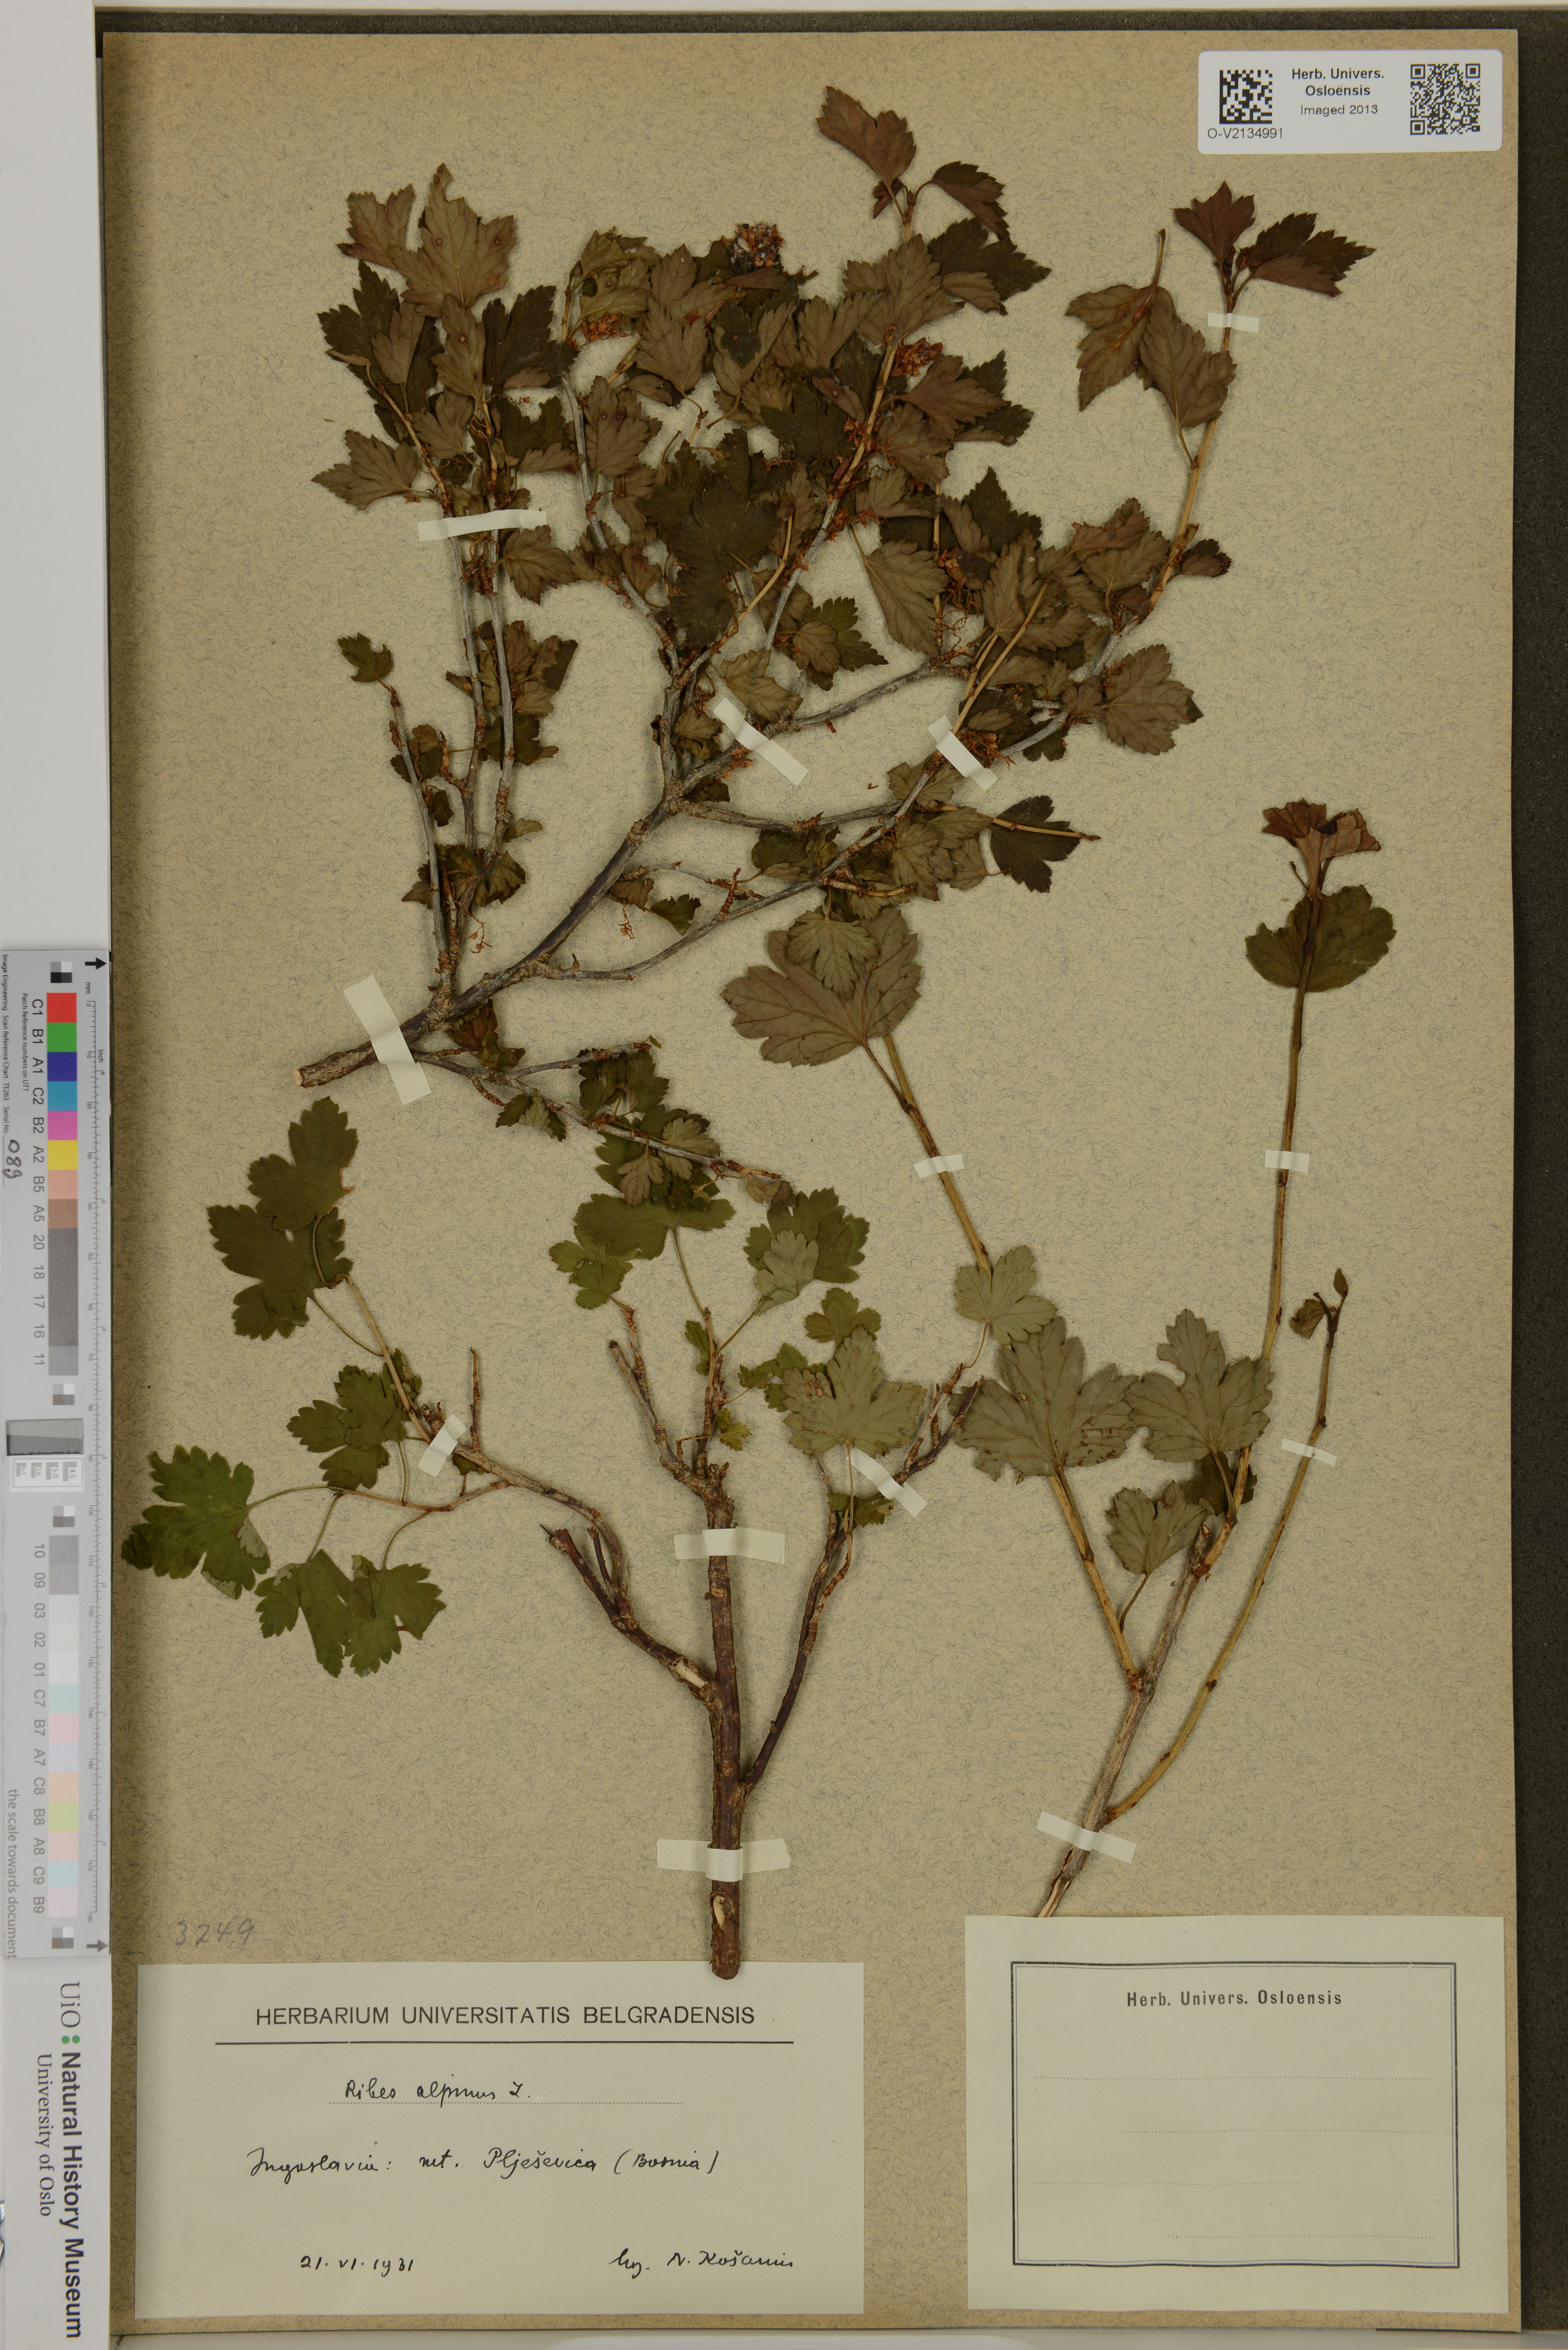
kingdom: Plantae
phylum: Tracheophyta
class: Magnoliopsida
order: Saxifragales
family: Grossulariaceae
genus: Ribes
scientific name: Ribes alpinum
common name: Alpine currant
